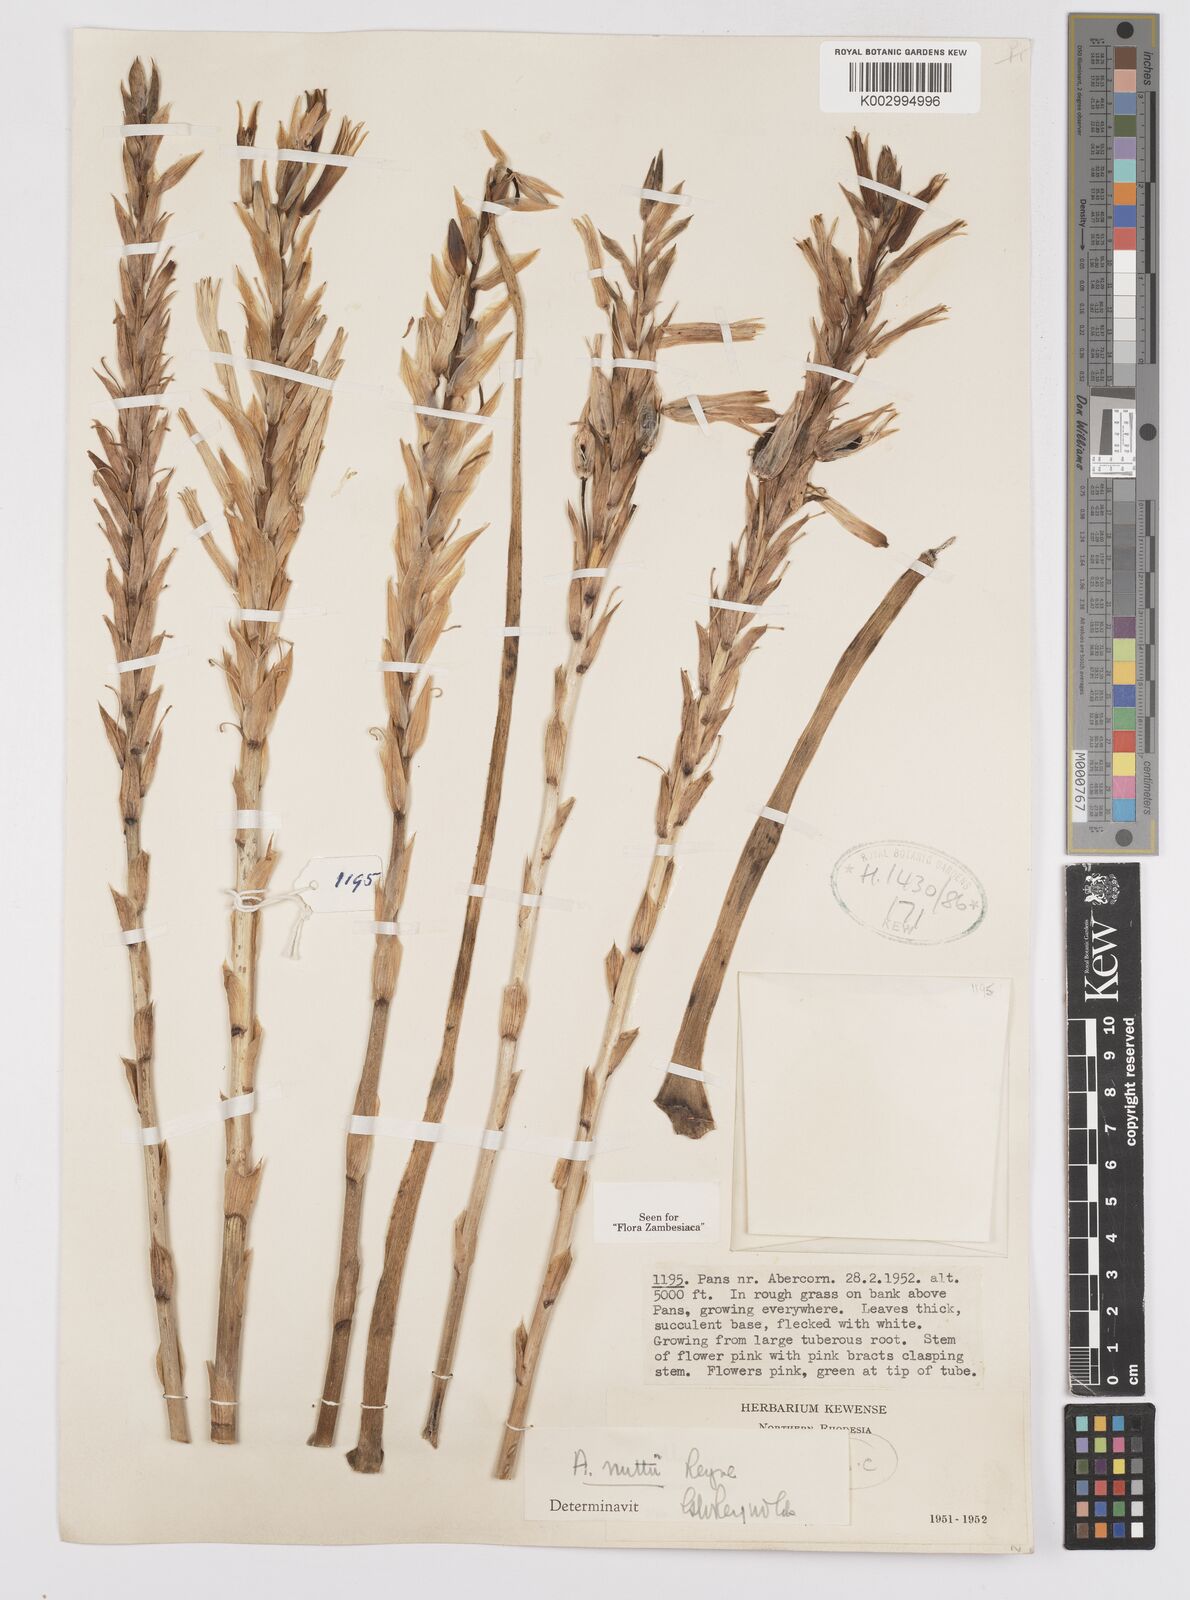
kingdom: Plantae
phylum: Tracheophyta
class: Liliopsida
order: Asparagales
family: Asphodelaceae
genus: Aloe
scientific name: Aloe nuttii
